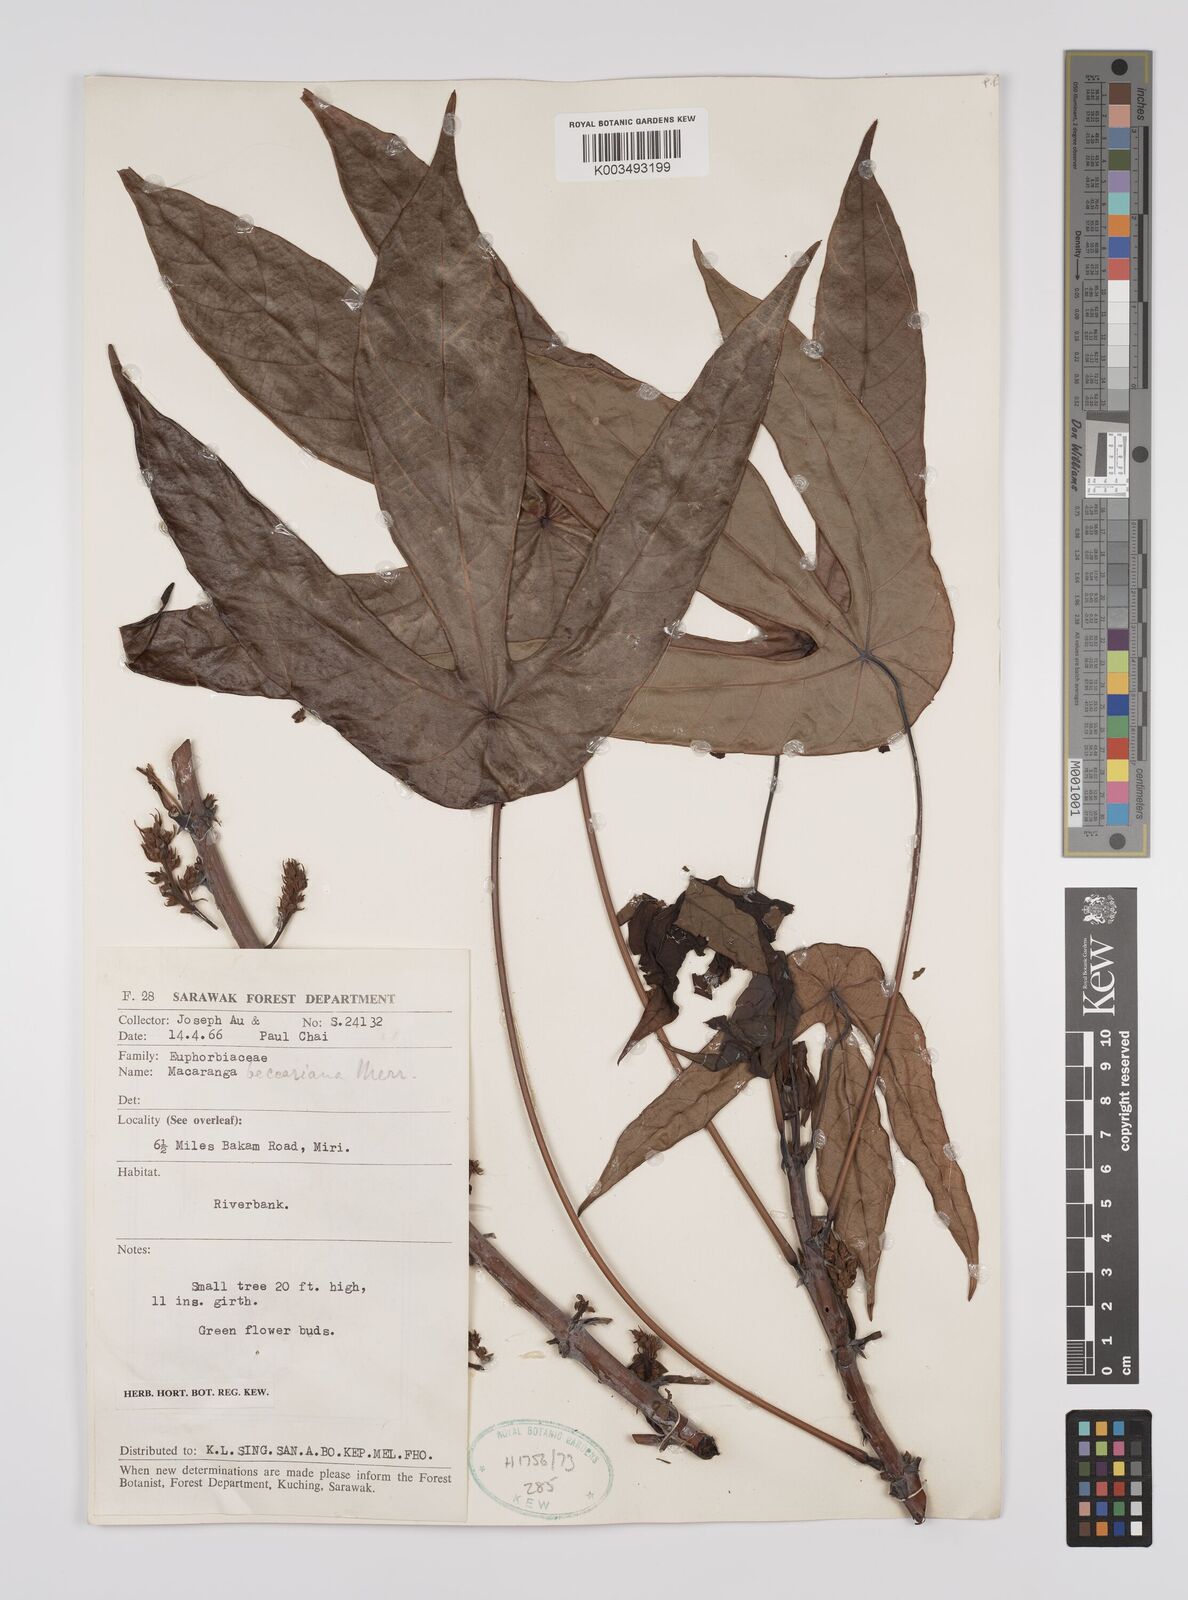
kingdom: Plantae
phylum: Tracheophyta
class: Magnoliopsida
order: Malpighiales
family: Euphorbiaceae
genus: Macaranga
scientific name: Macaranga beccariana
